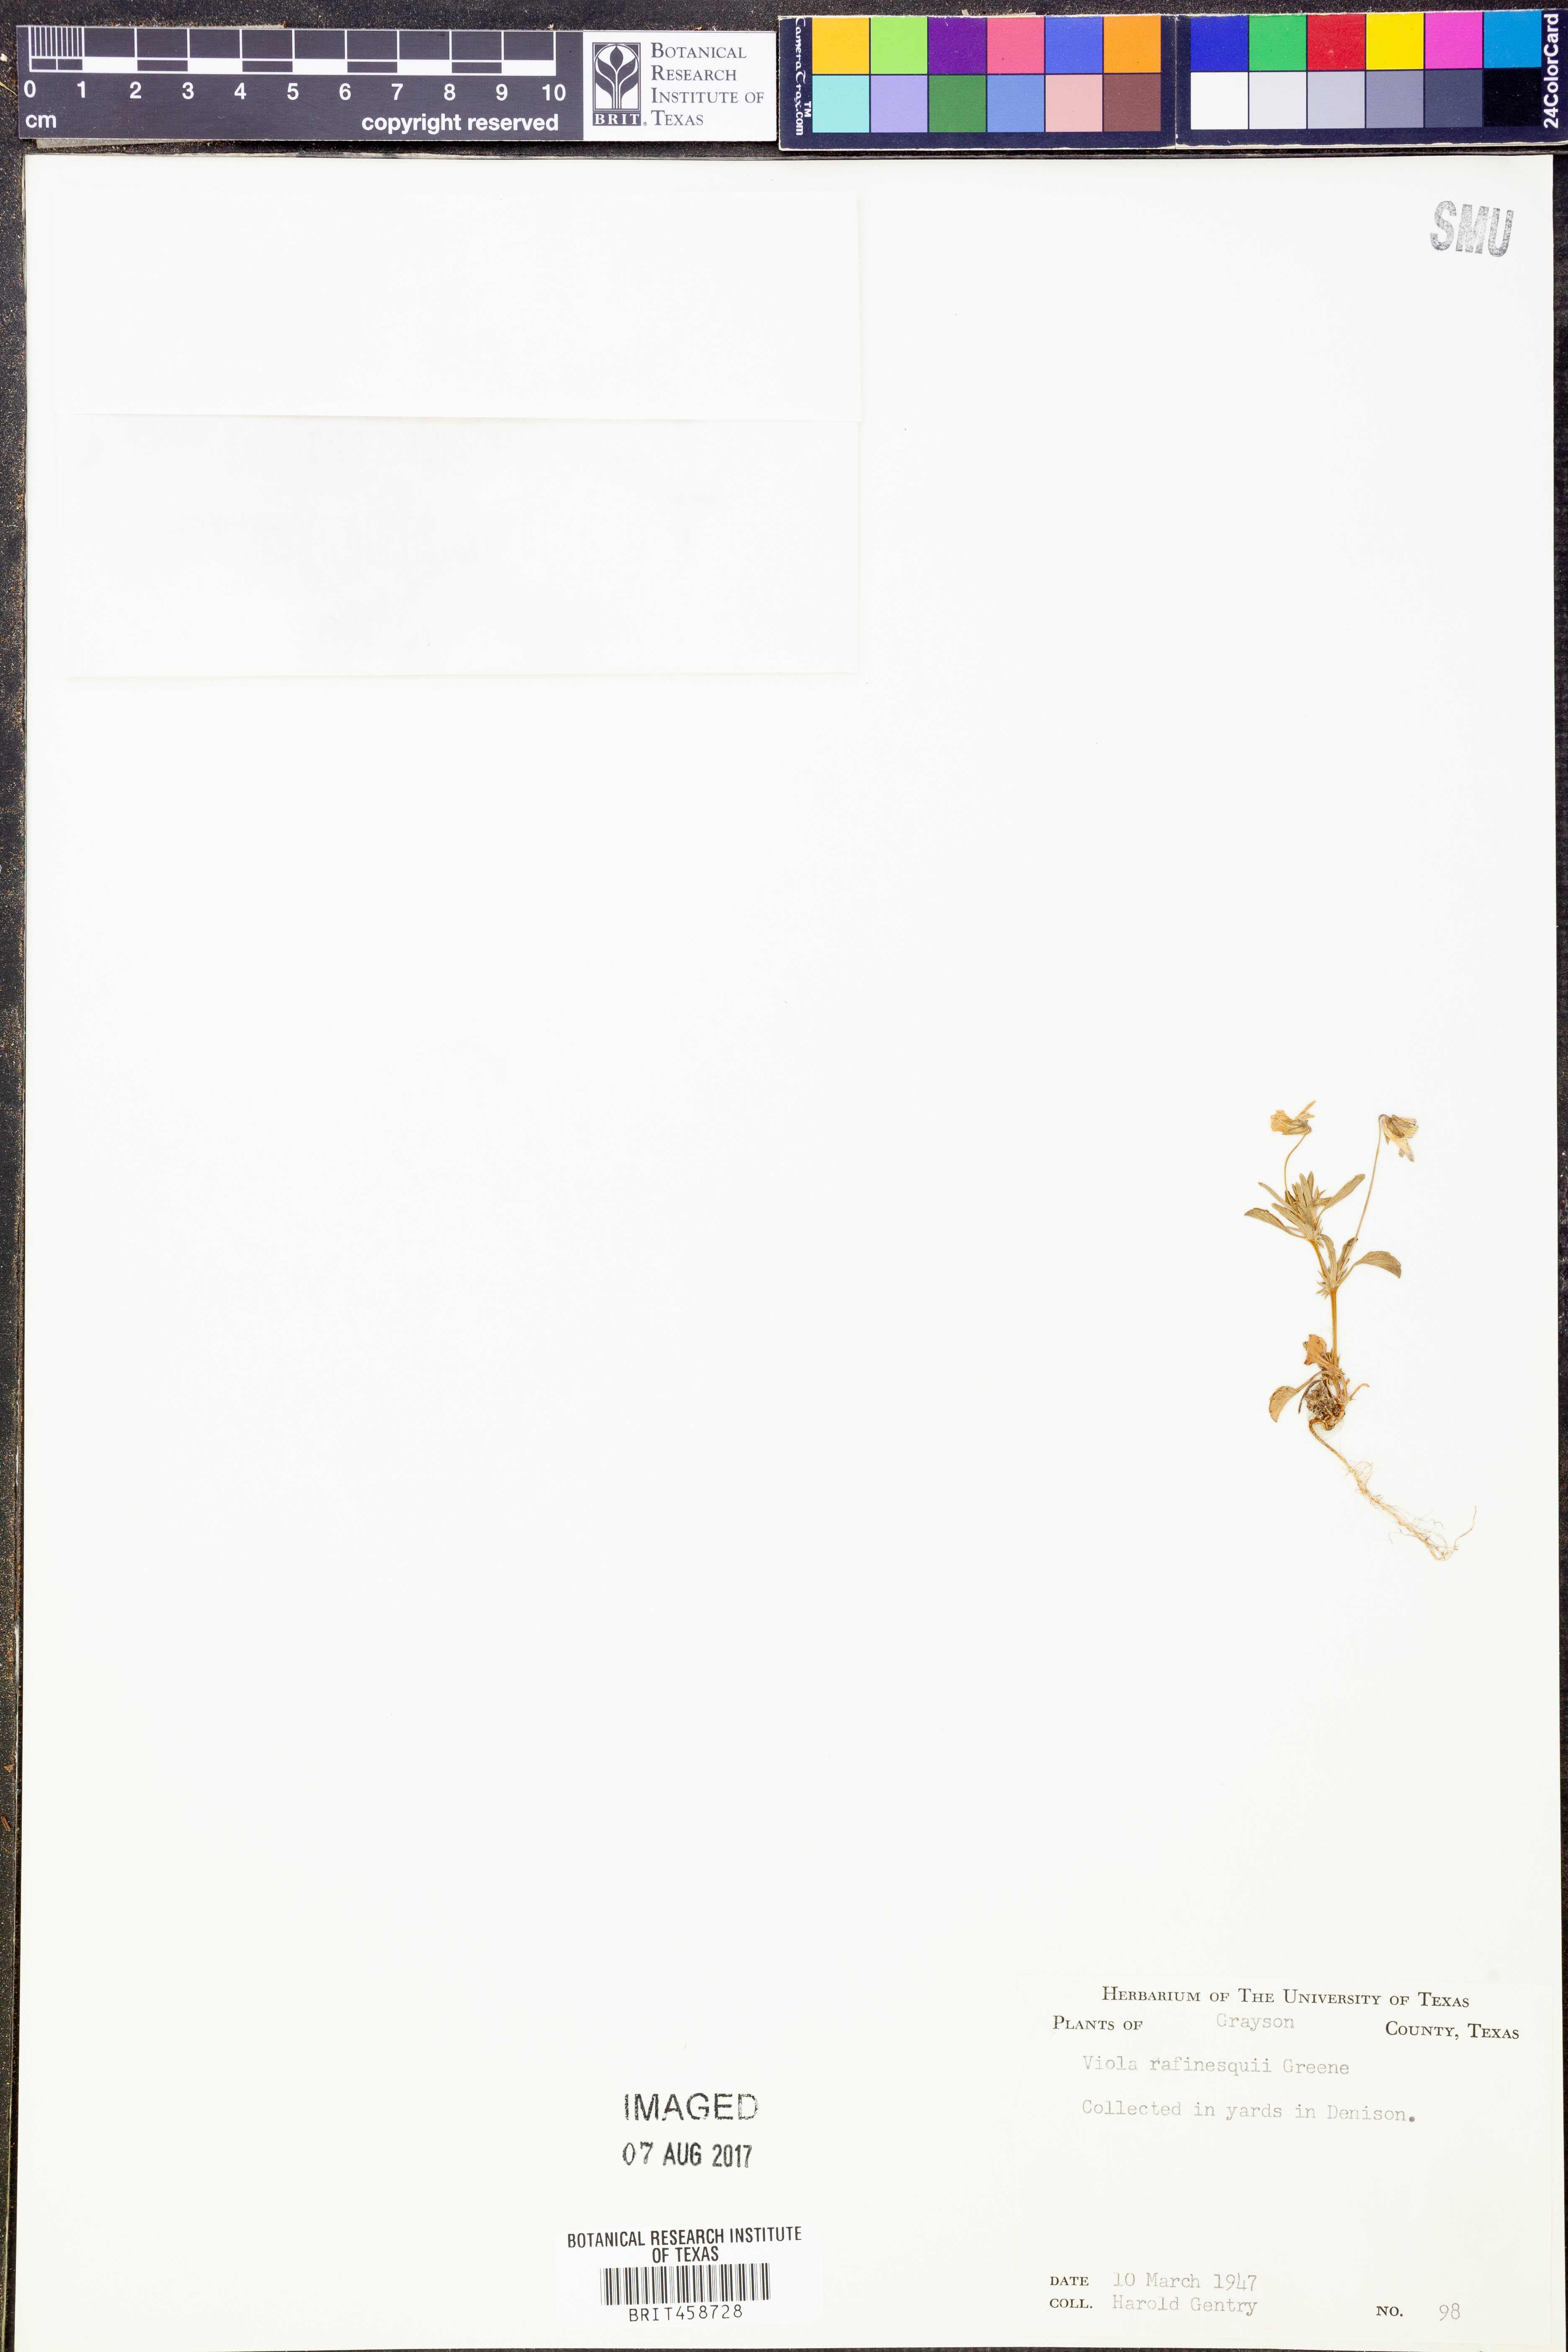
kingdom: Plantae
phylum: Tracheophyta
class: Magnoliopsida
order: Malpighiales
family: Violaceae
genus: Viola
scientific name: Viola rafinesquei
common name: American field pansy
